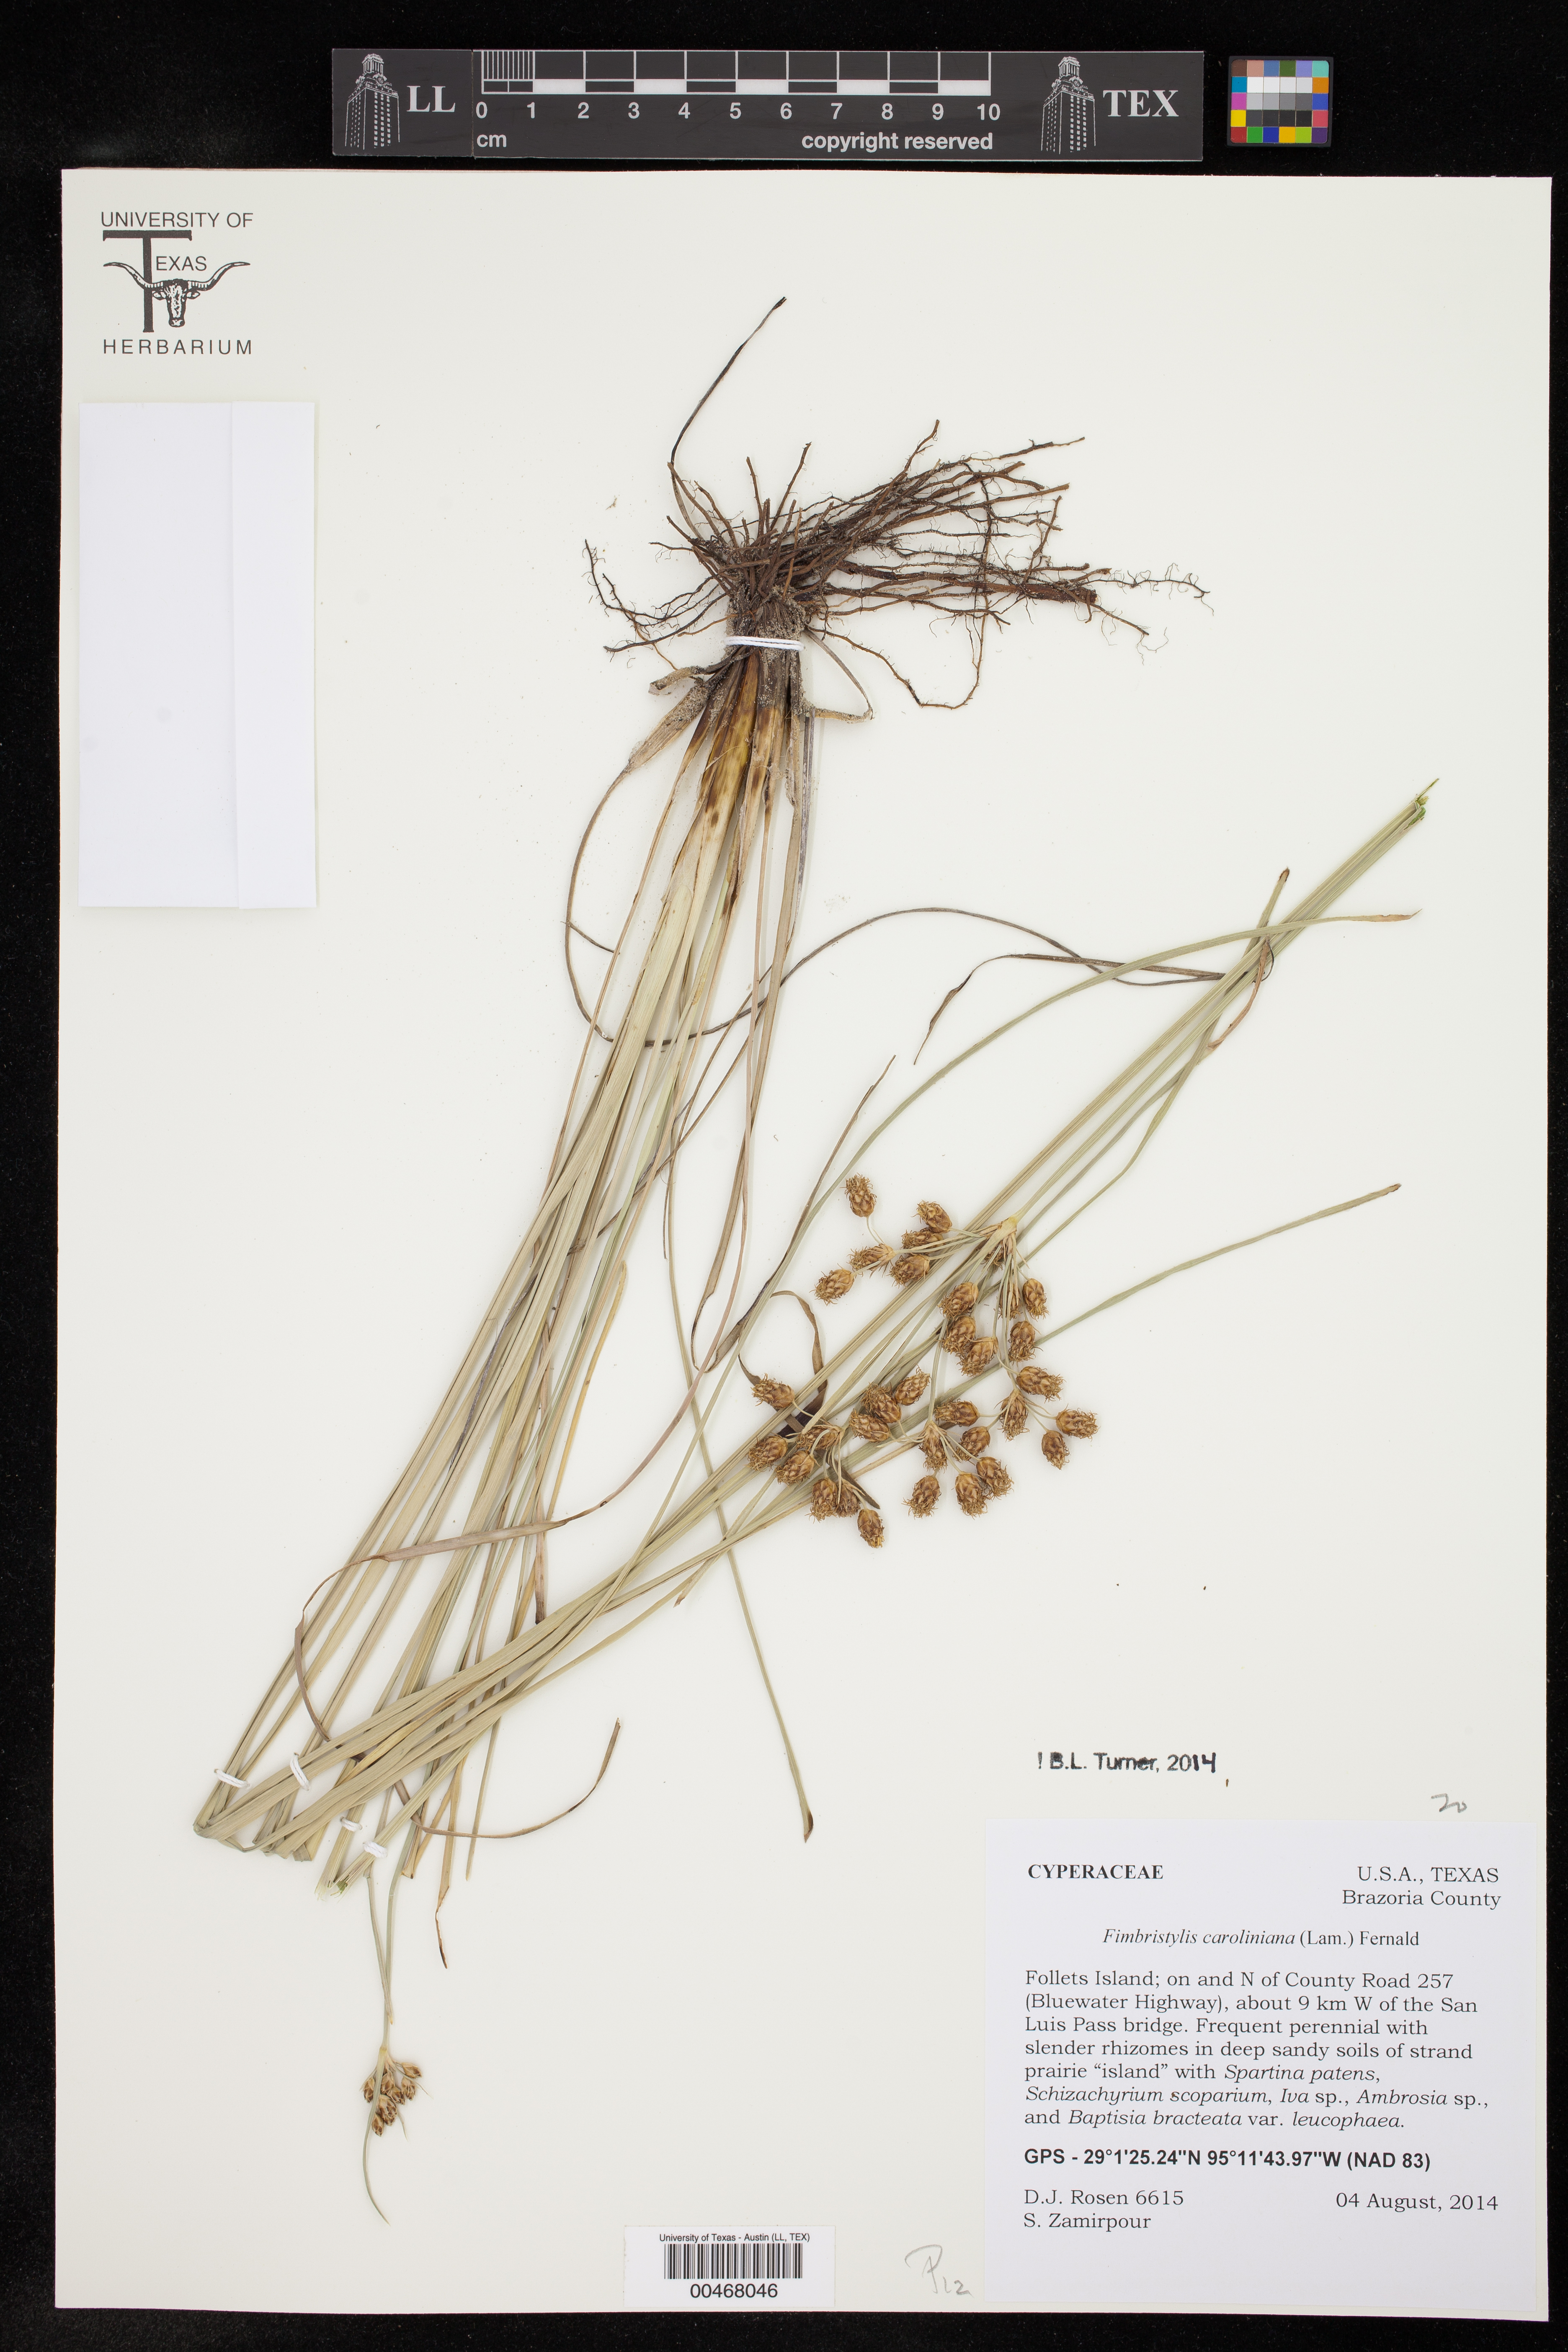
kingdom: Plantae
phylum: Tracheophyta
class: Liliopsida
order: Poales
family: Cyperaceae
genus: Fimbristylis
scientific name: Fimbristylis caroliniana
